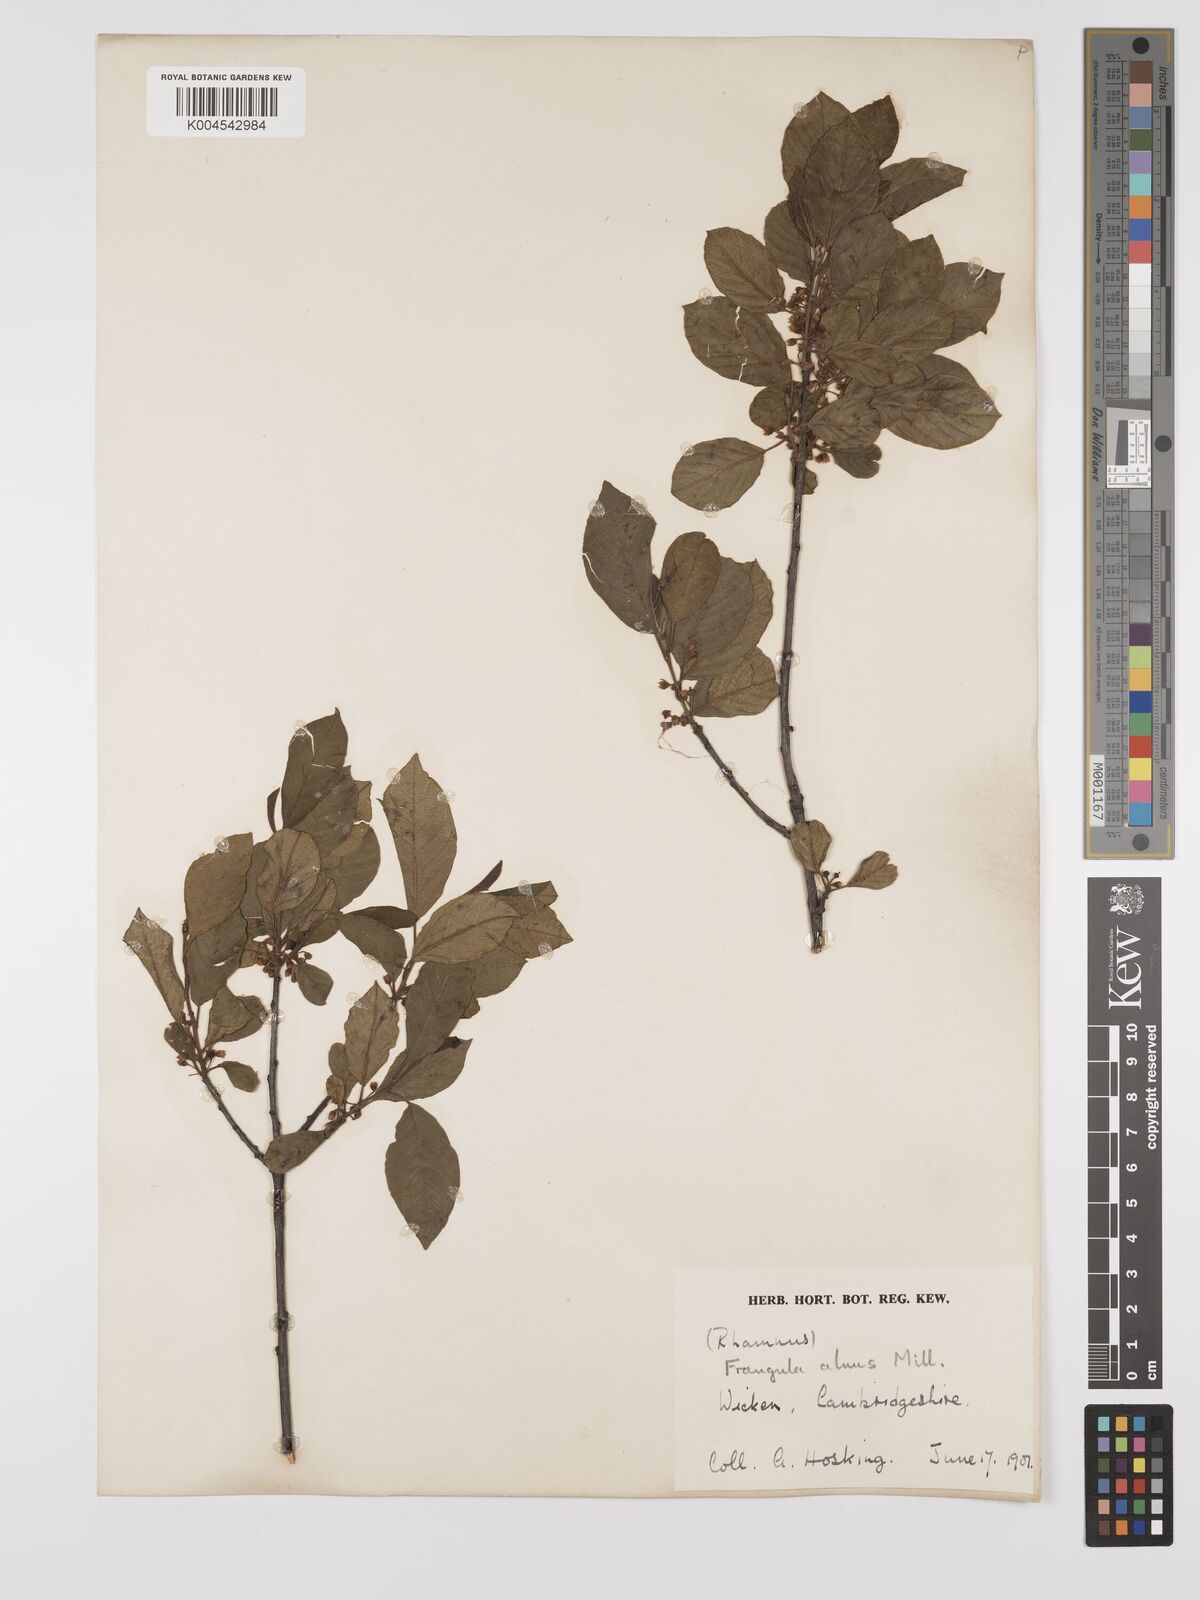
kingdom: Plantae
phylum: Tracheophyta
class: Magnoliopsida
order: Rosales
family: Rhamnaceae
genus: Frangula
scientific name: Frangula alnus
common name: Alder buckthorn
